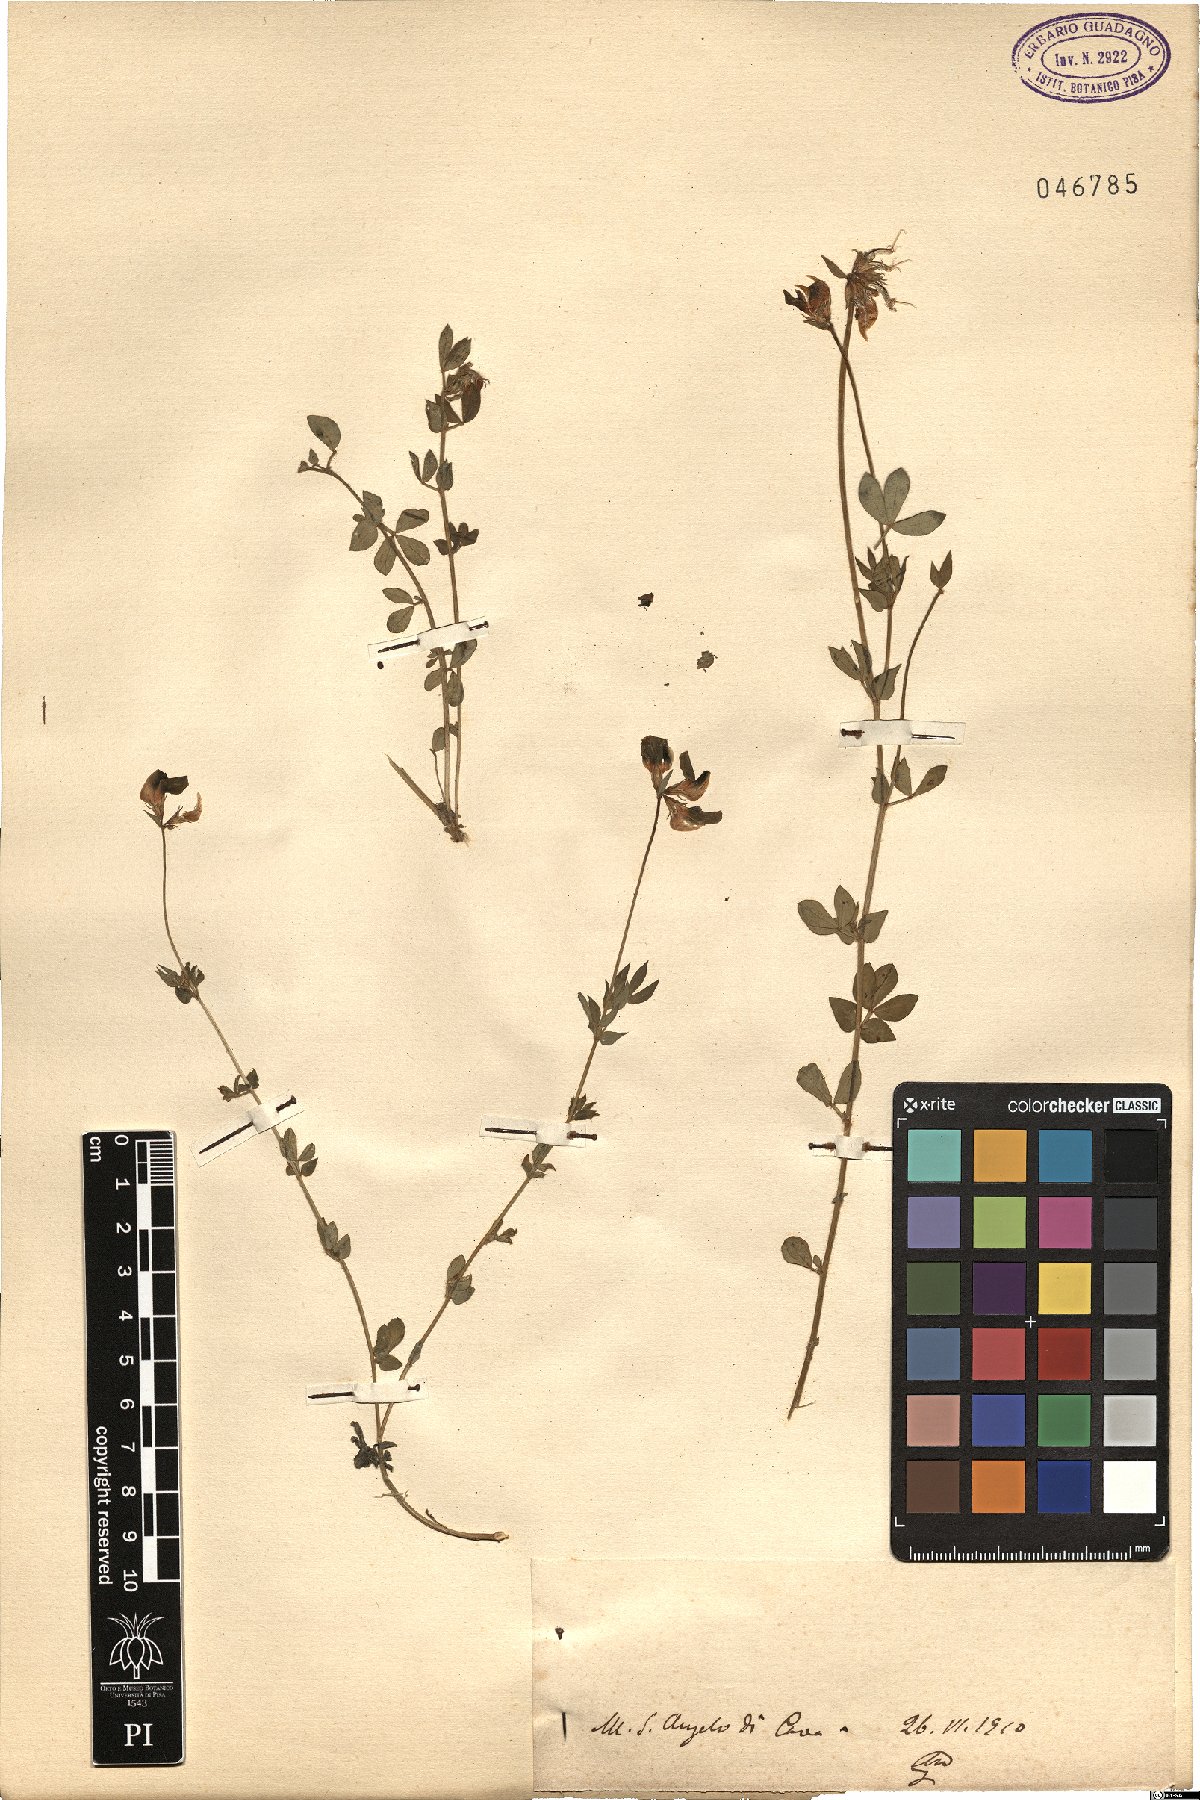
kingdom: Plantae
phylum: Tracheophyta
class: Magnoliopsida
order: Fabales
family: Fabaceae
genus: Lotus
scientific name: Lotus
